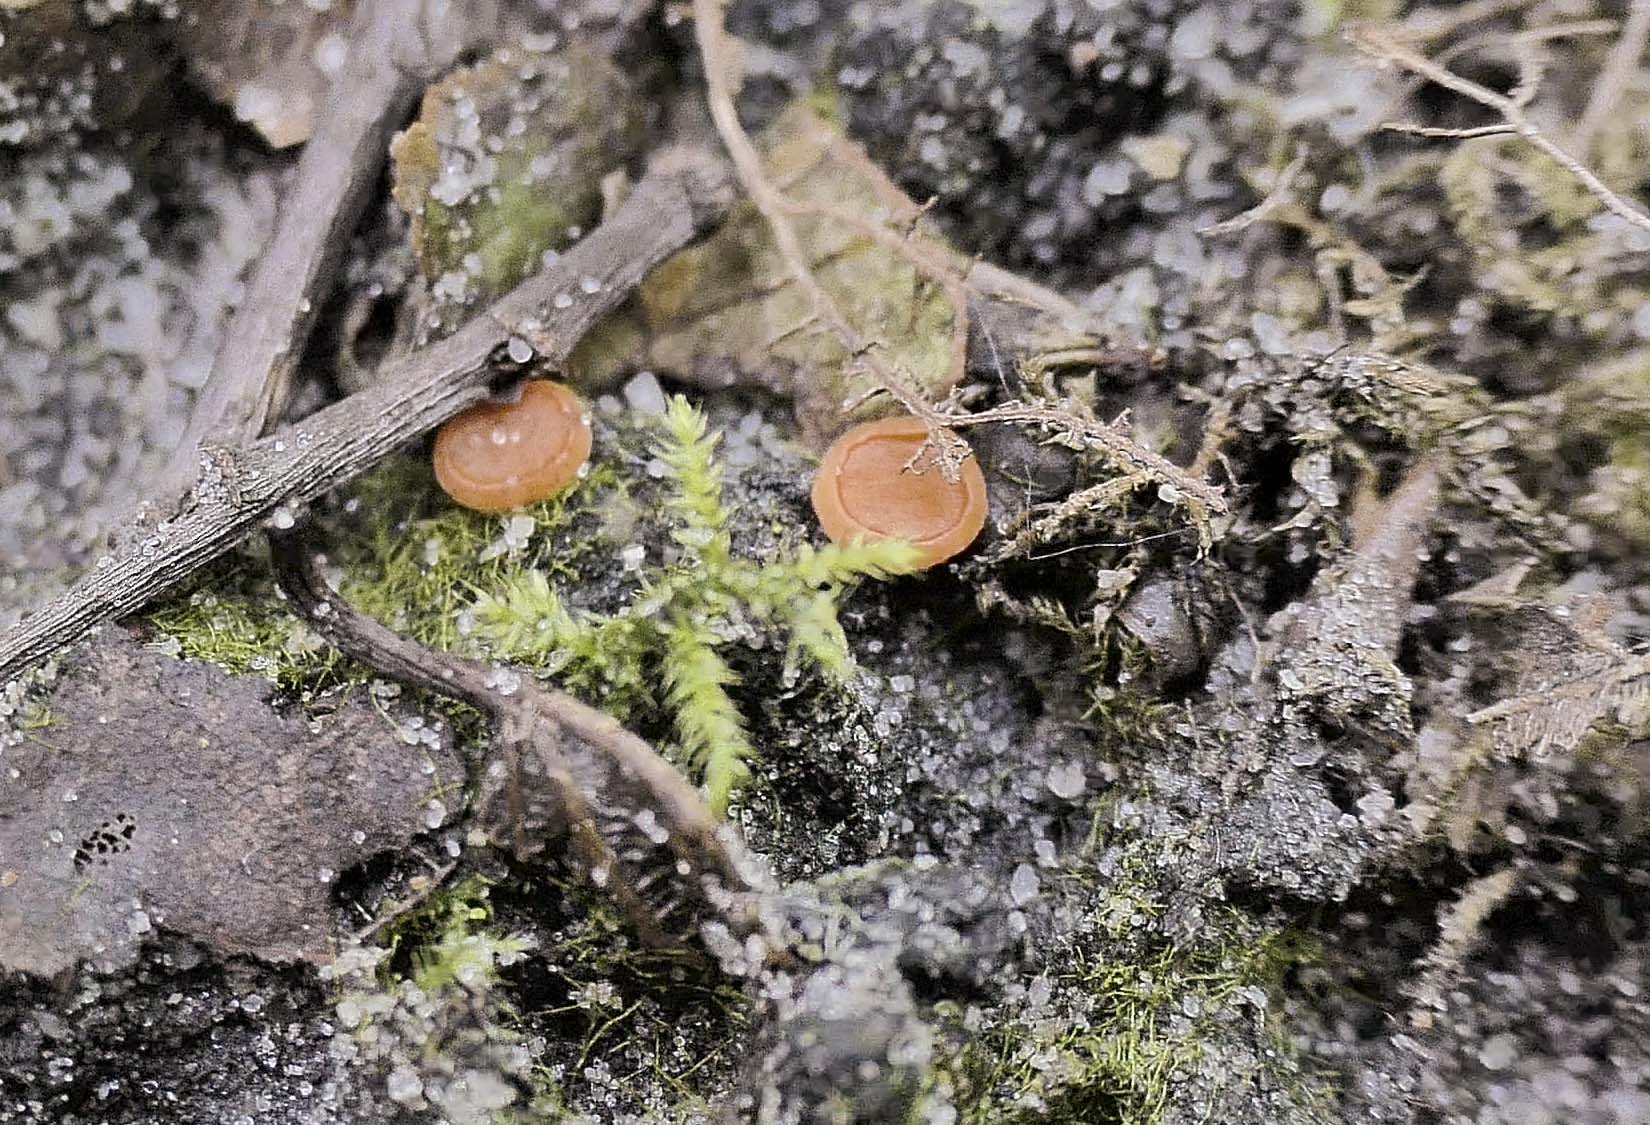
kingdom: Fungi
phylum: Ascomycota
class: Pezizomycetes
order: Pezizales
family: Pyronemataceae
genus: Pulvinula
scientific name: Pulvinula
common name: pudebæger
